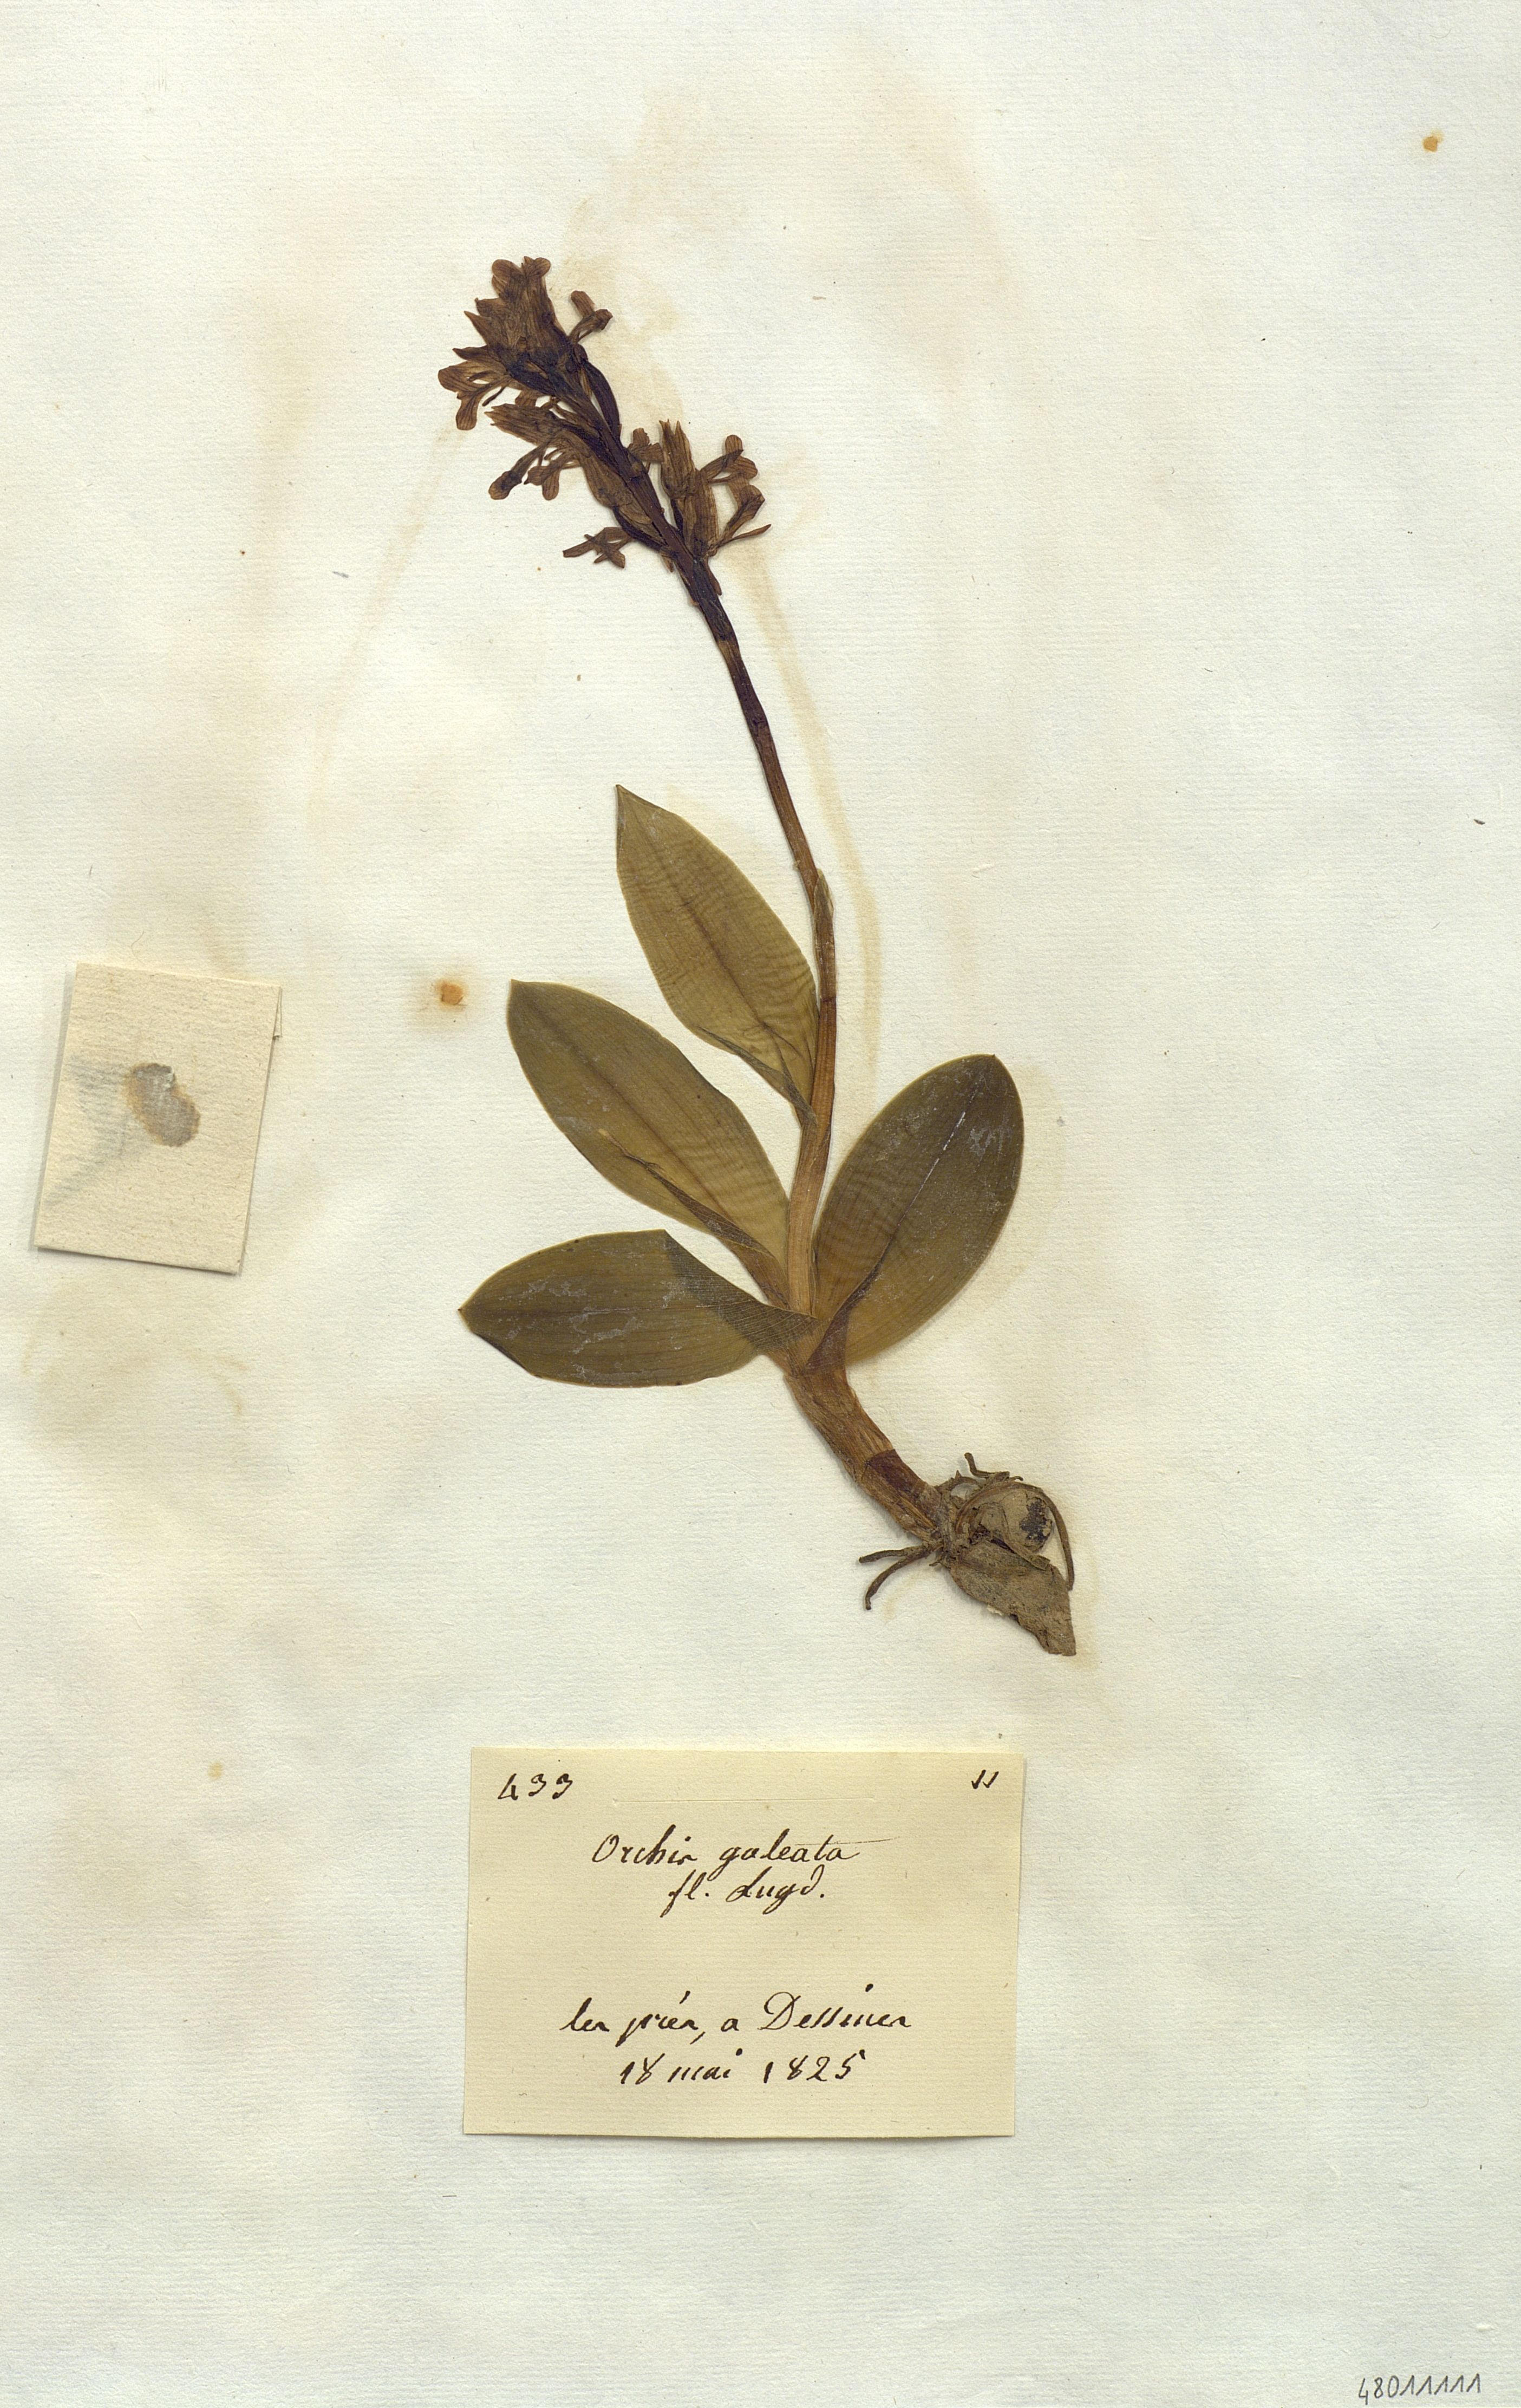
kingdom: Plantae
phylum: Tracheophyta
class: Liliopsida
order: Asparagales
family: Orchidaceae
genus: Orchis
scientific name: Orchis militaris
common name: Military orchid
